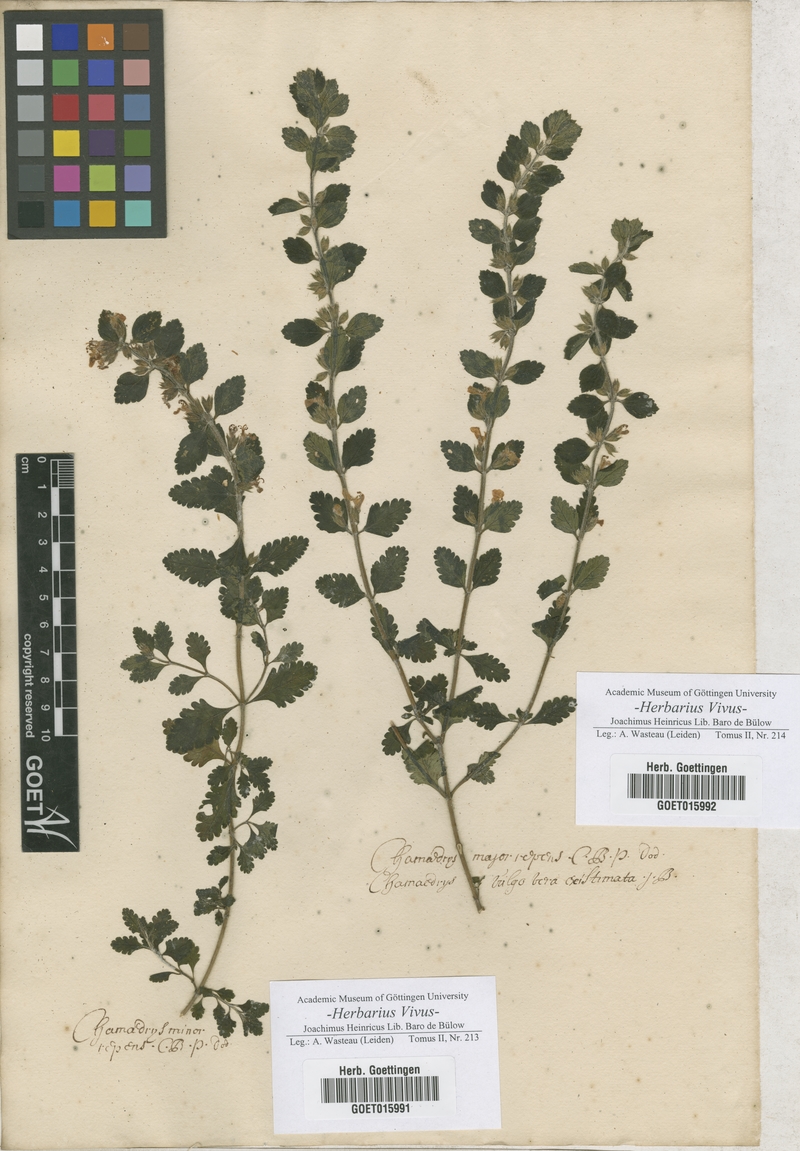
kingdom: Plantae
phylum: Tracheophyta
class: Magnoliopsida
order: Lamiales
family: Lamiaceae
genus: Teucrium
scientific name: Teucrium chamaedrys
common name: Wall germander
